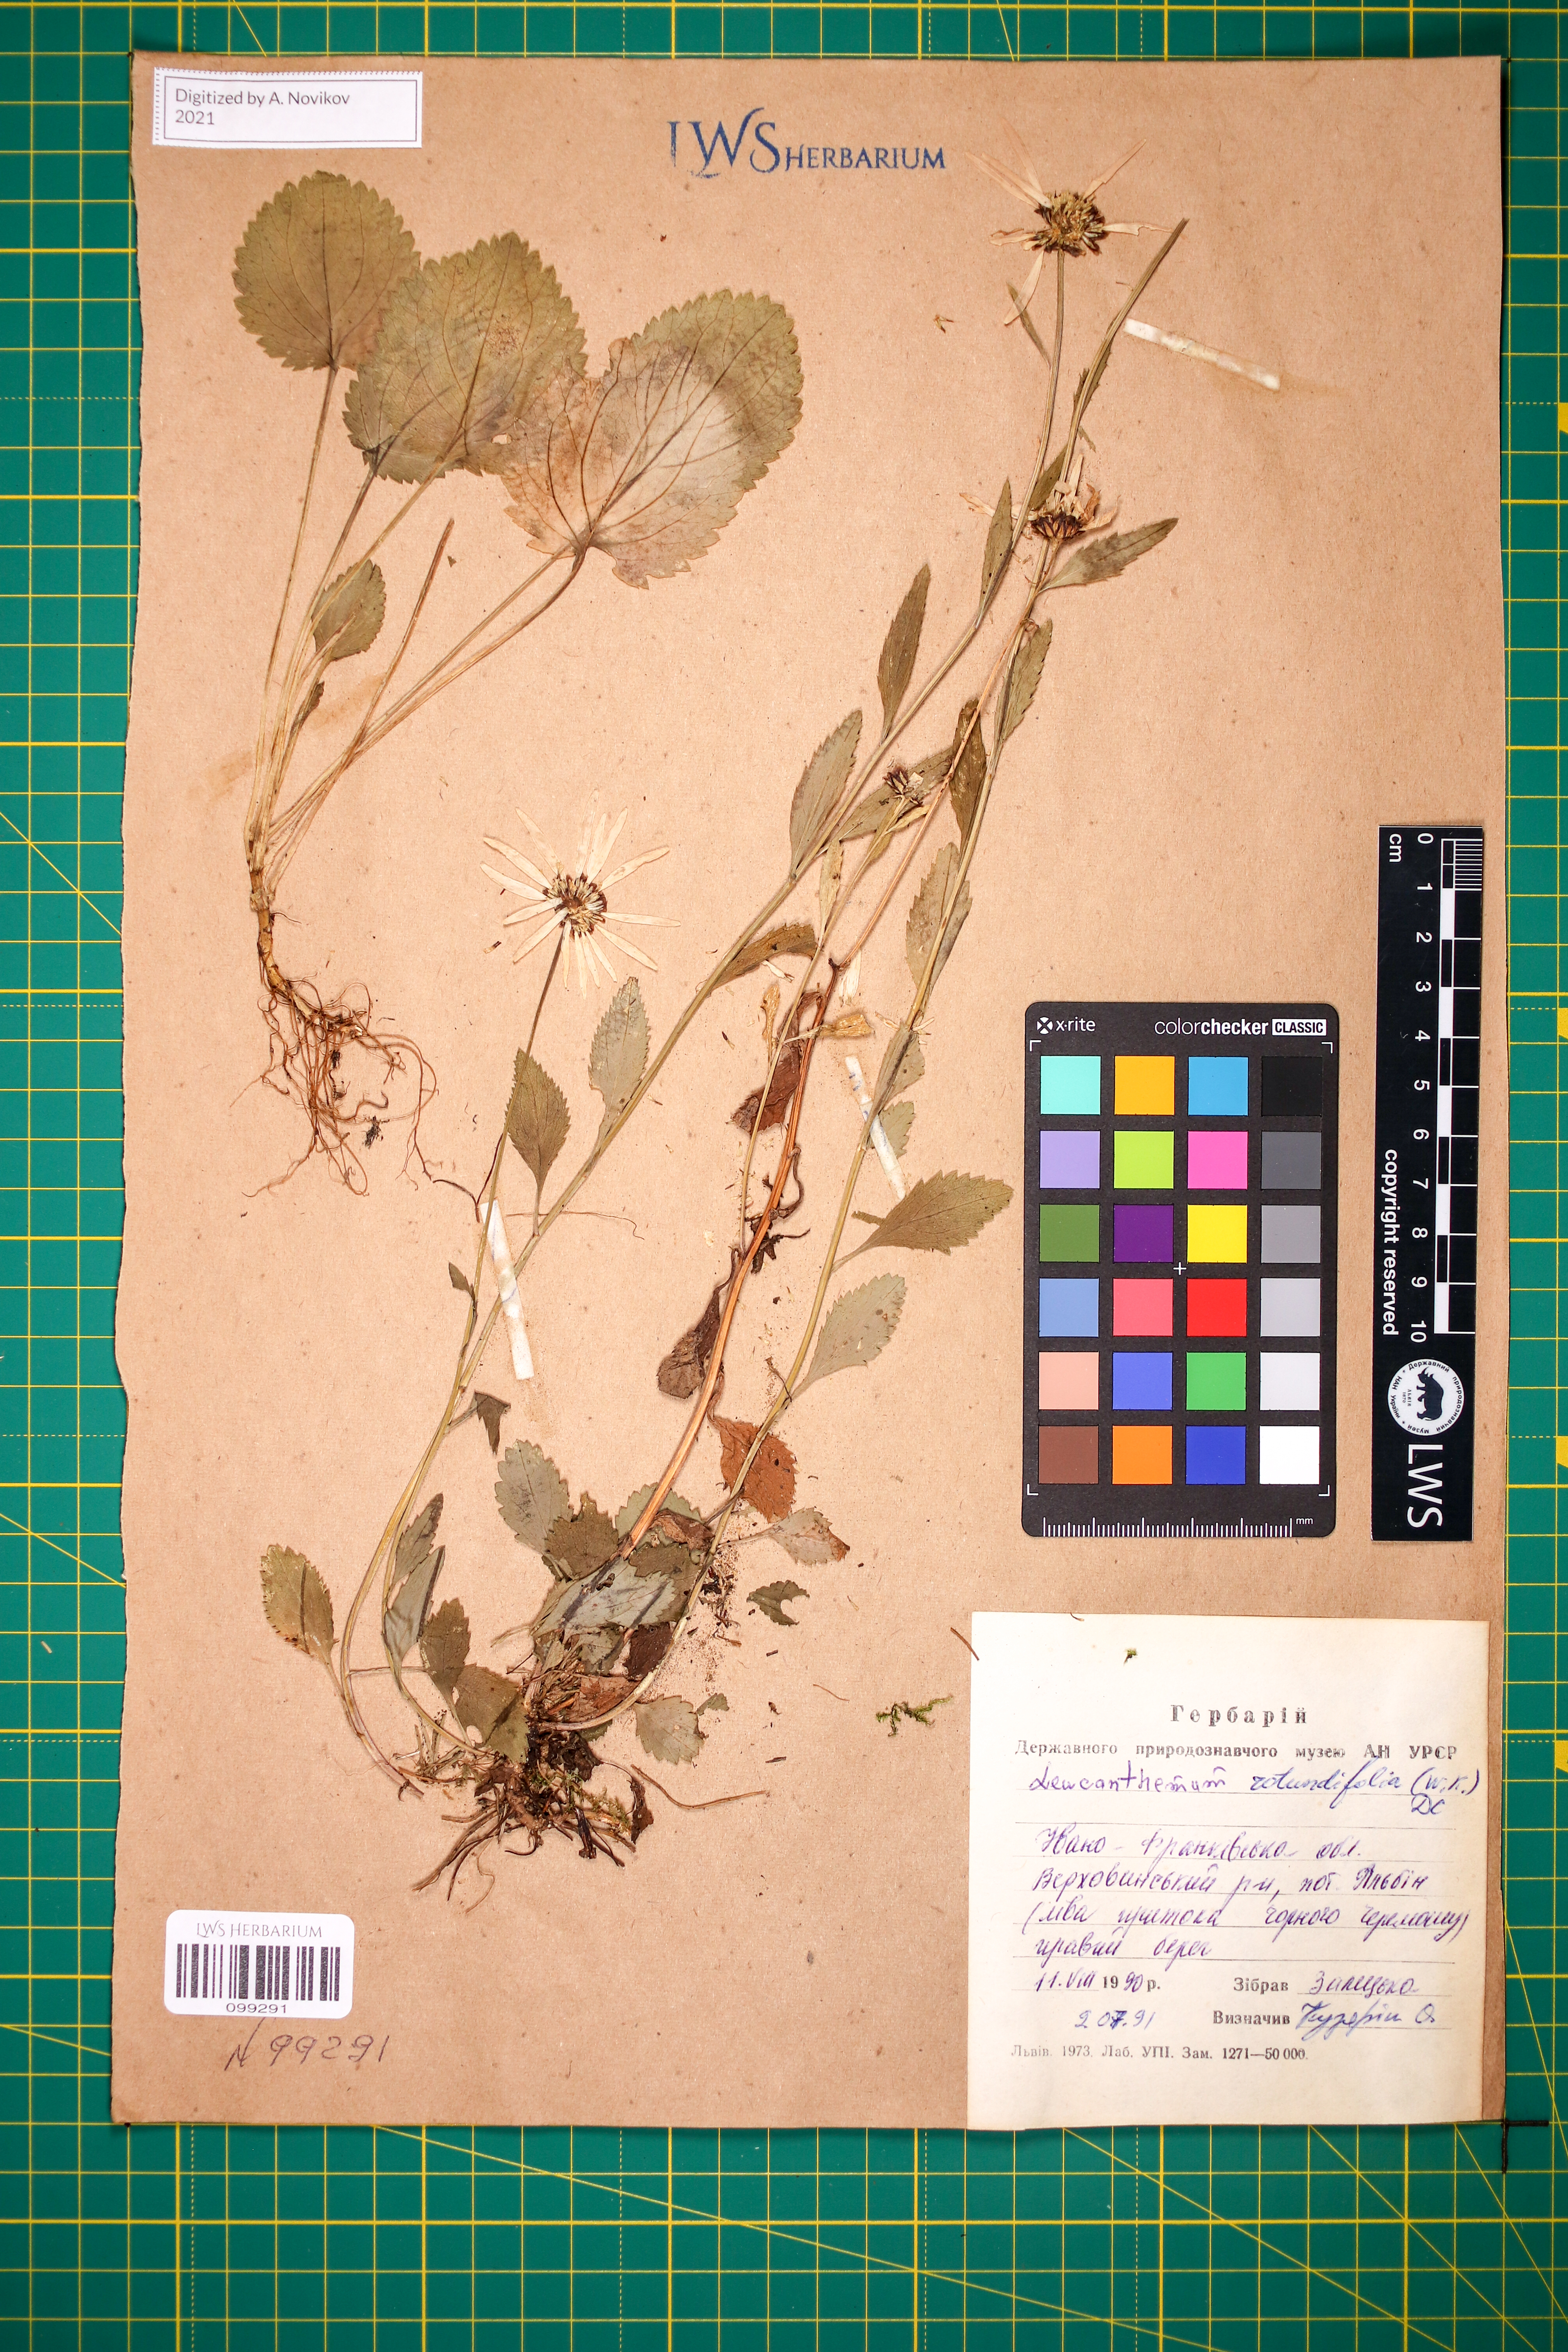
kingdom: Plantae
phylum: Tracheophyta
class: Magnoliopsida
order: Asterales
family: Asteraceae
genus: Leucanthemum
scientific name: Leucanthemum rotundifolium
